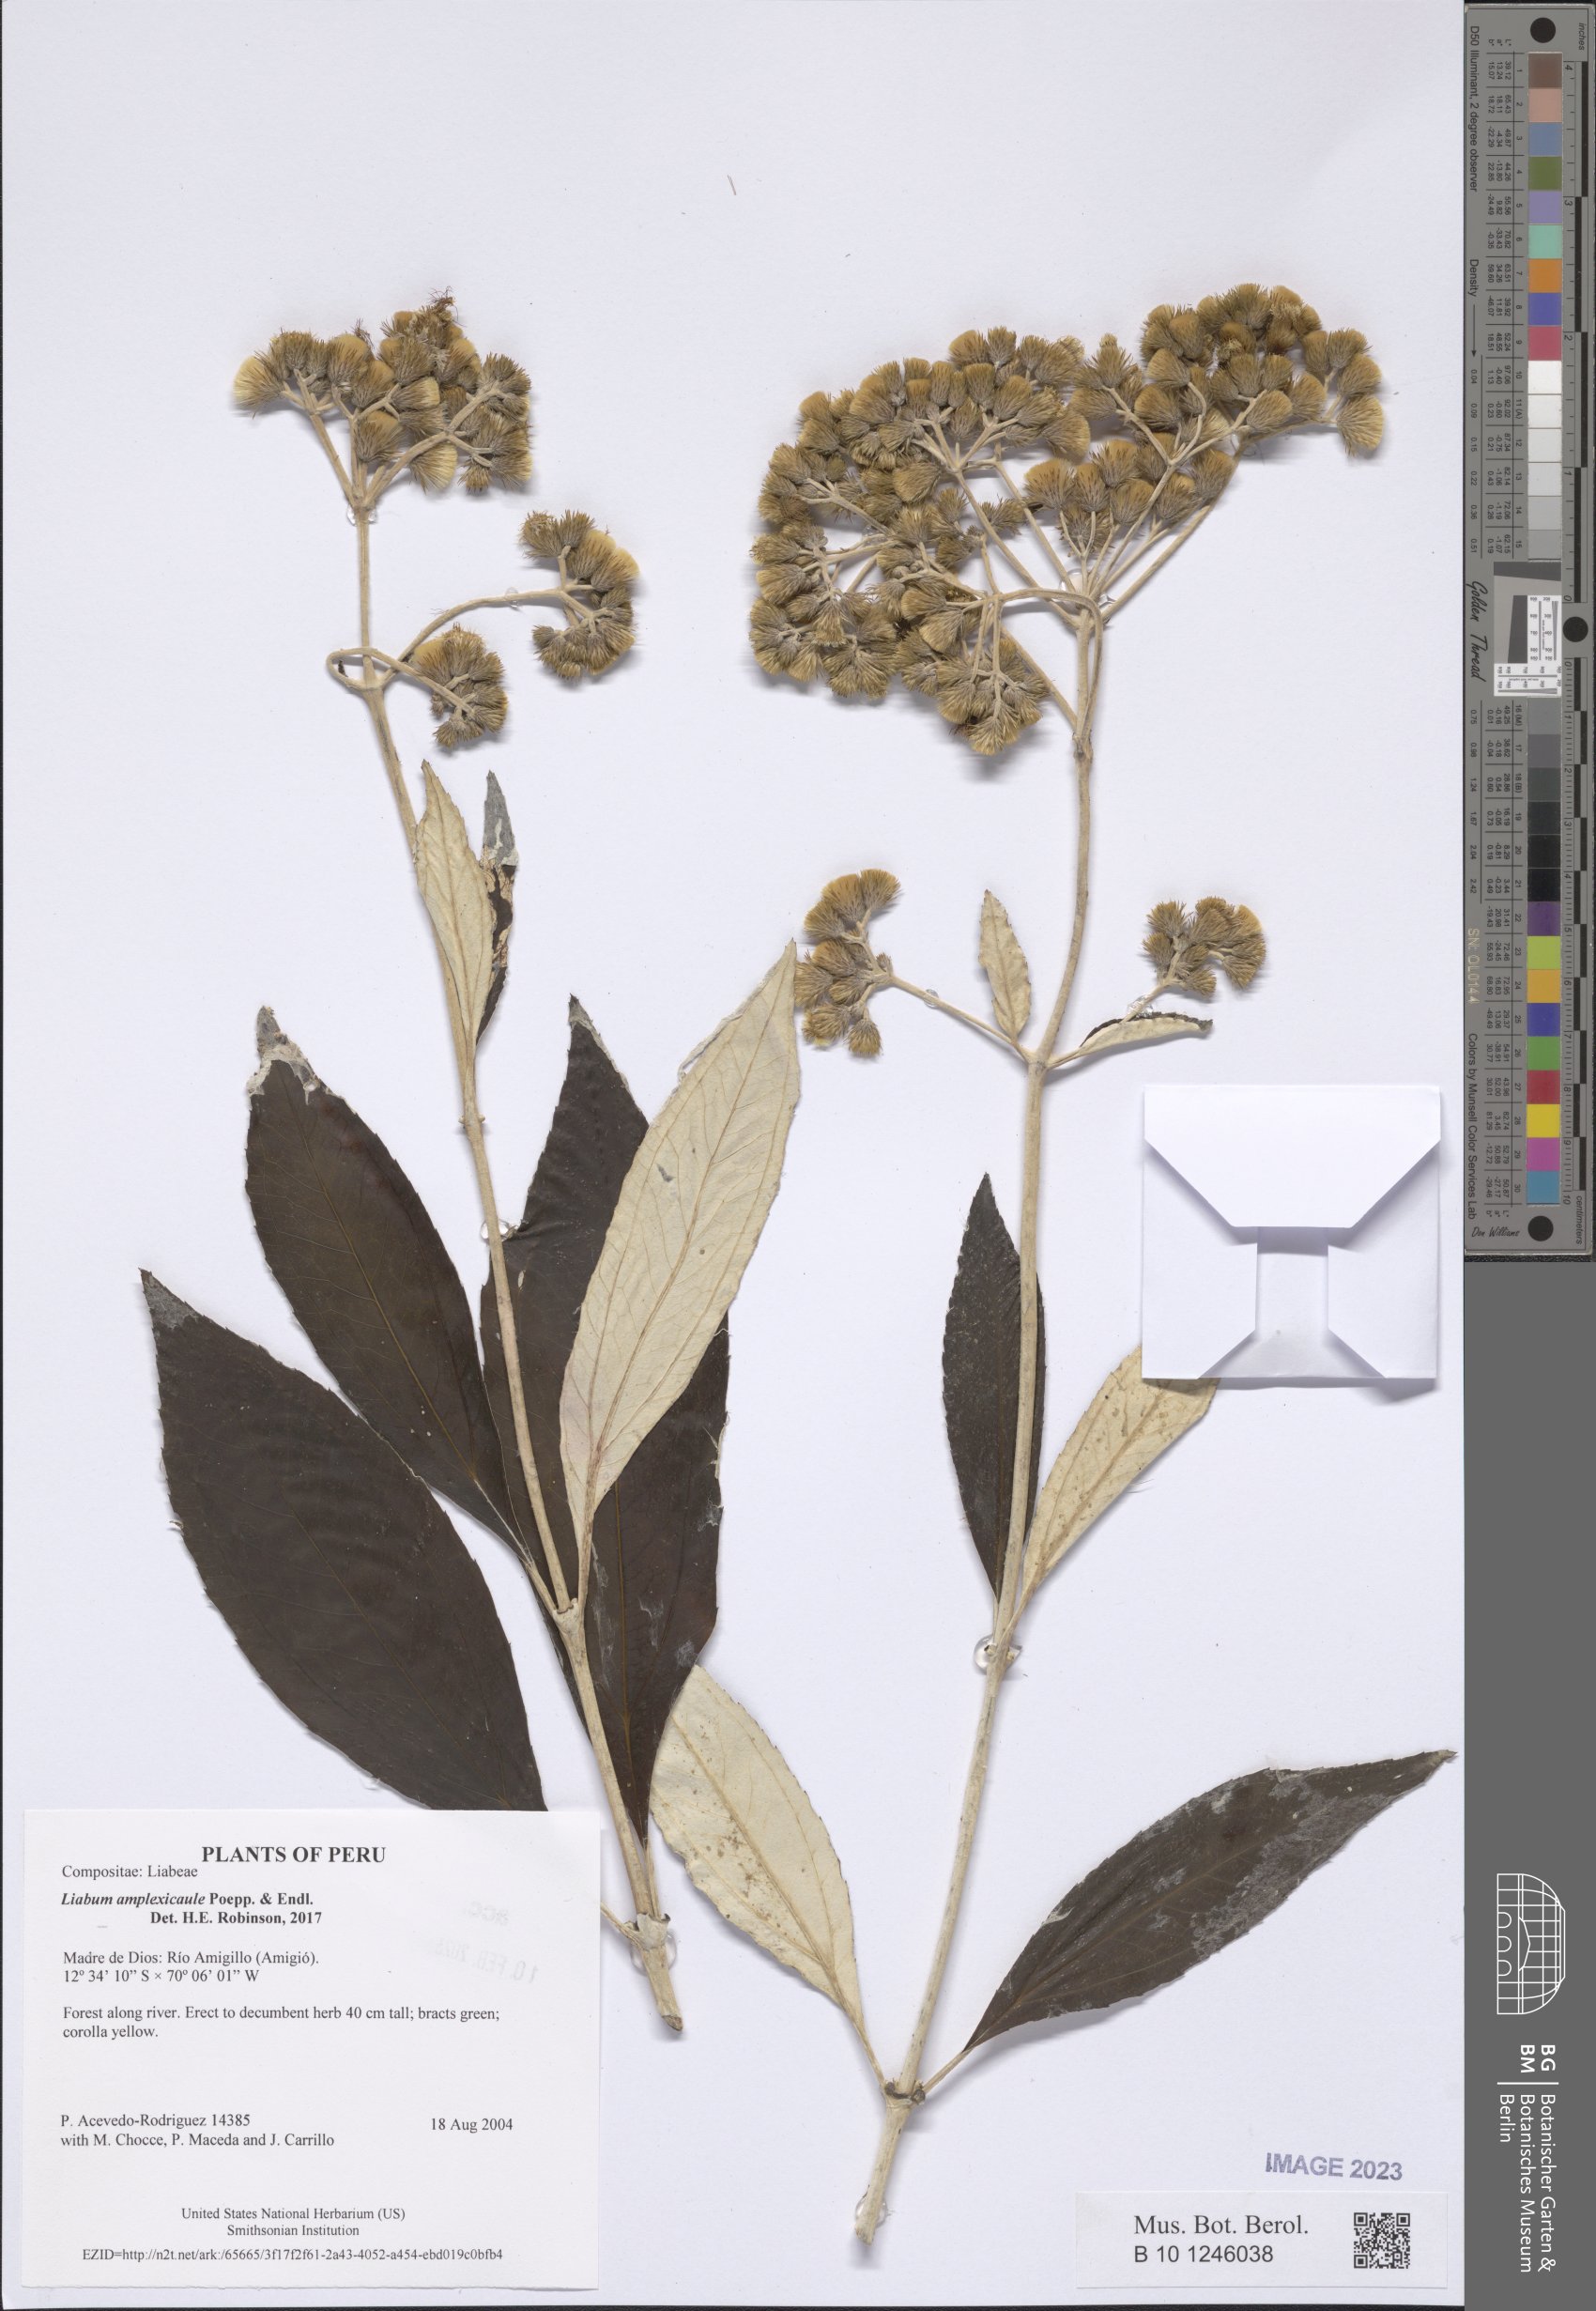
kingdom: Plantae
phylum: Tracheophyta
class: Magnoliopsida
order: Asterales
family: Asteraceae
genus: Liabum
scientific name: Liabum amplexicaule
